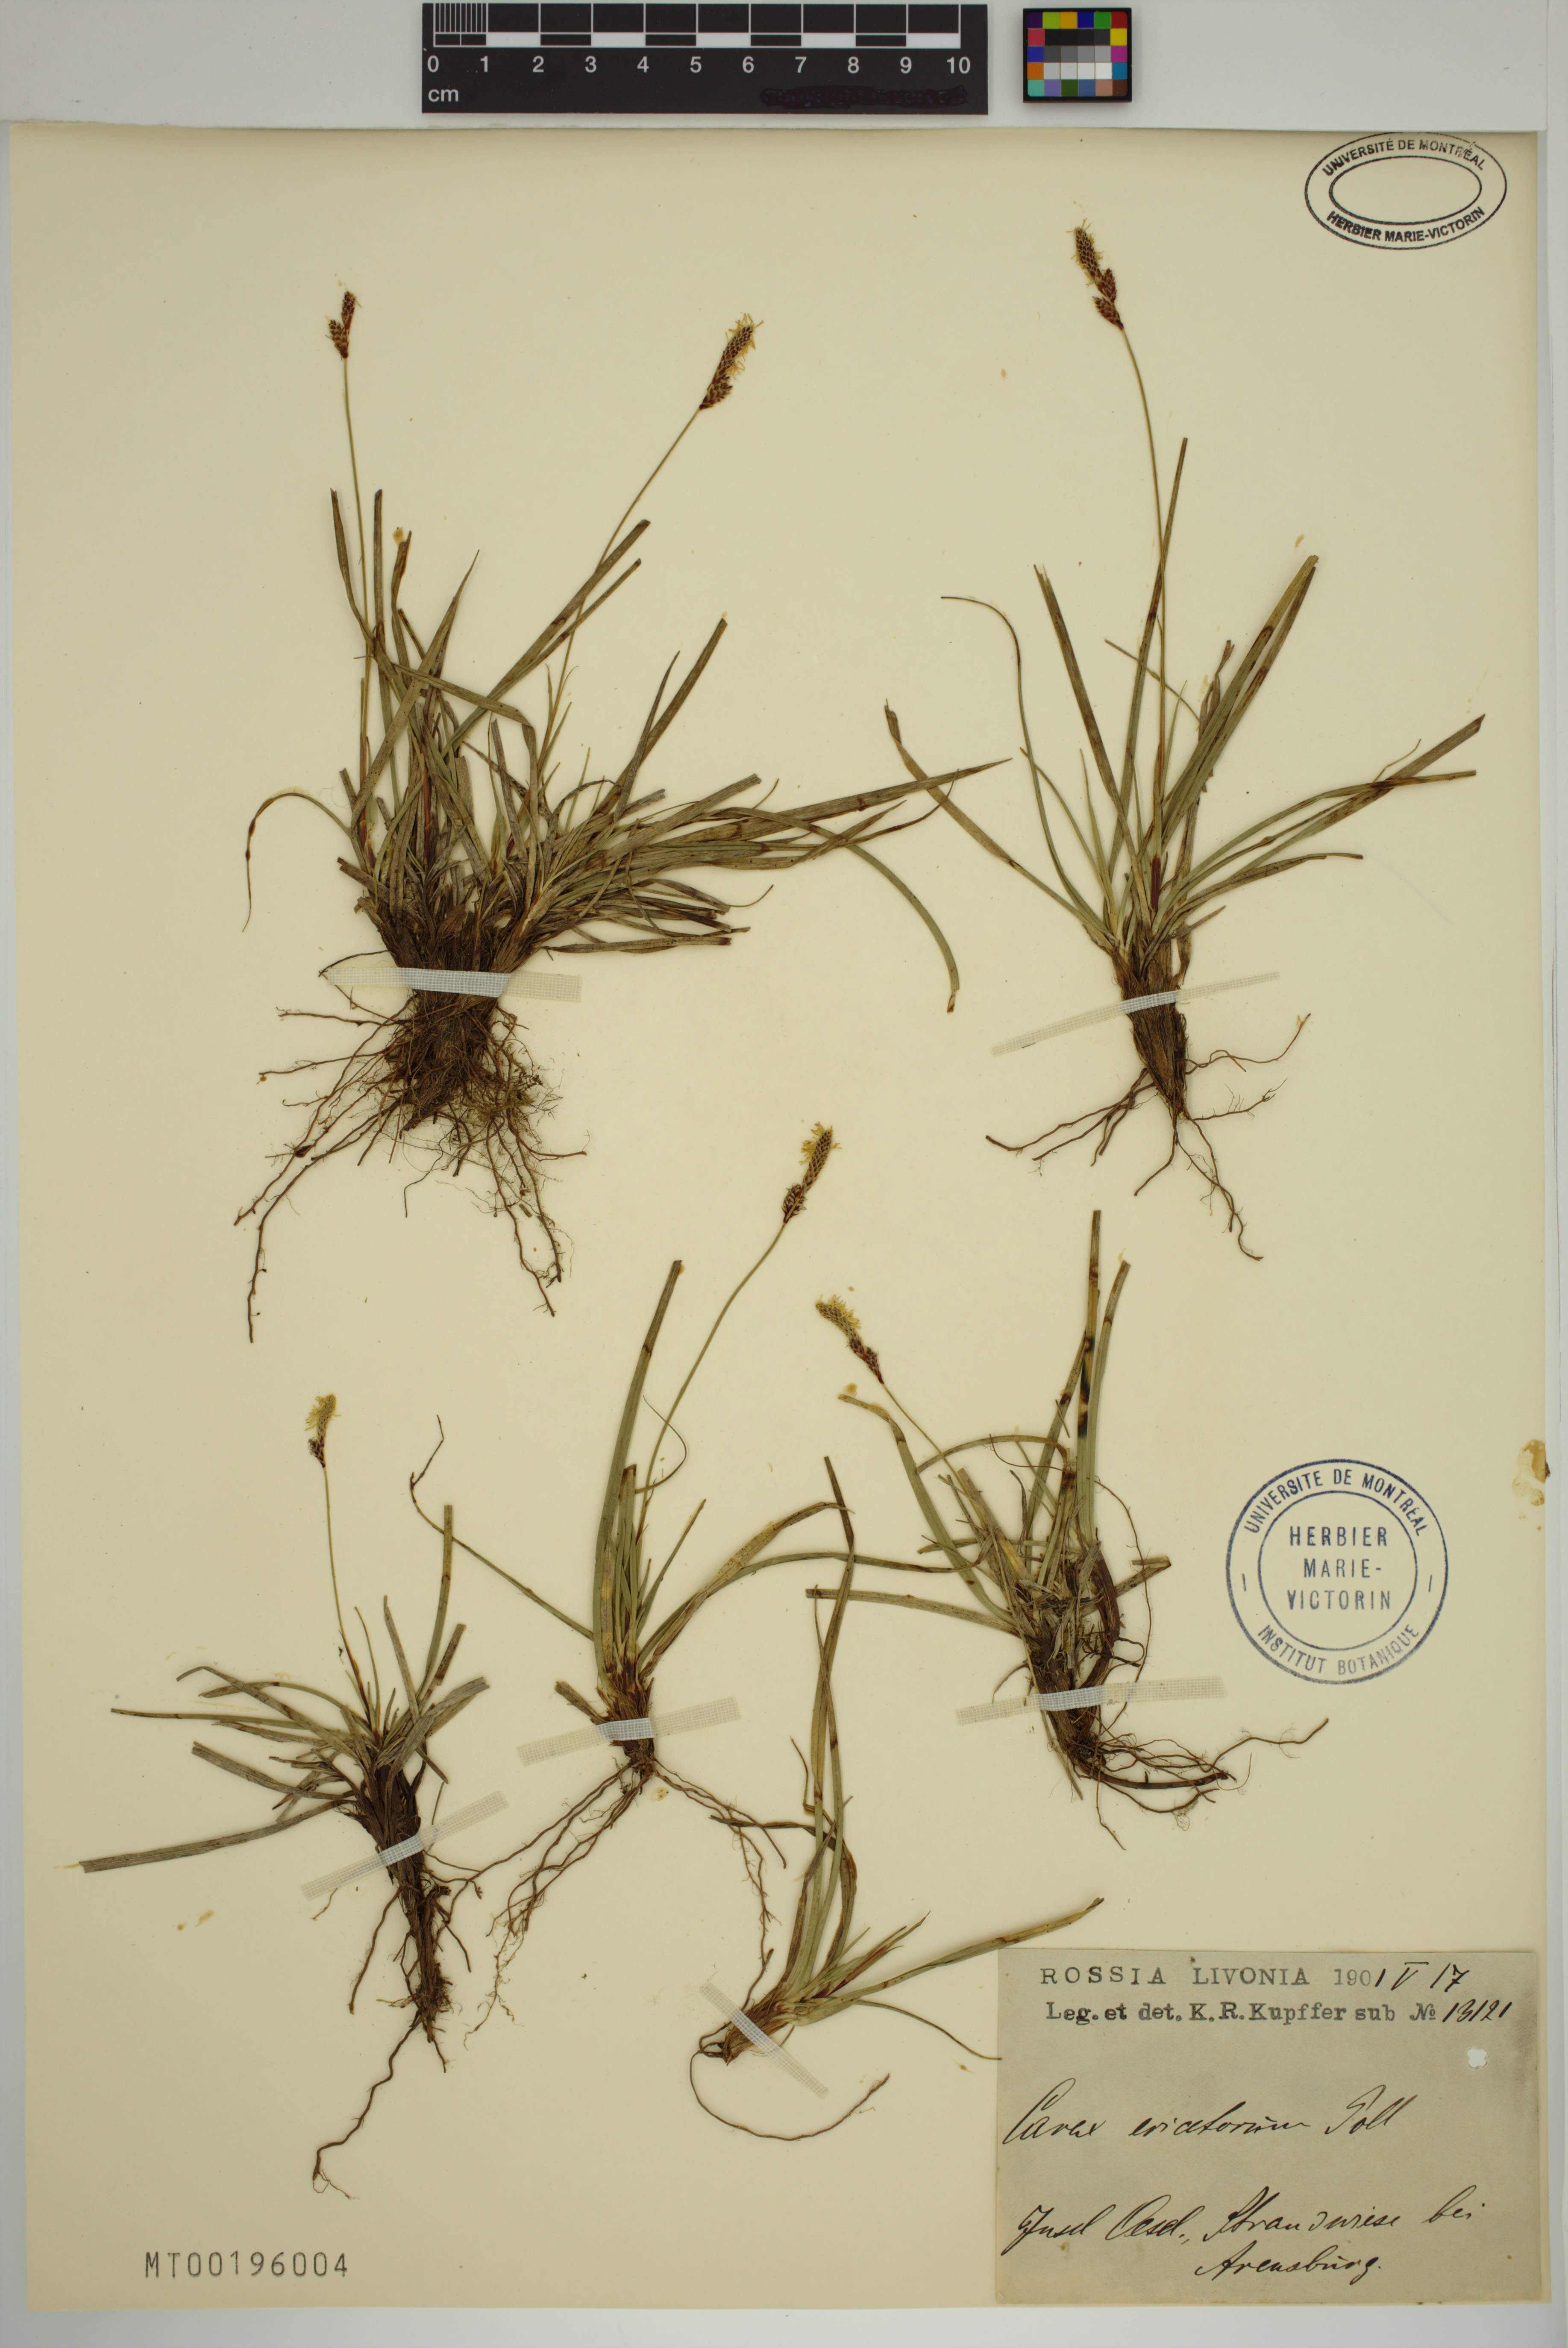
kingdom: Plantae
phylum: Tracheophyta
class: Liliopsida
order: Poales
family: Cyperaceae
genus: Carex
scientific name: Carex ericetorum
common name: Rare spring-sedge
